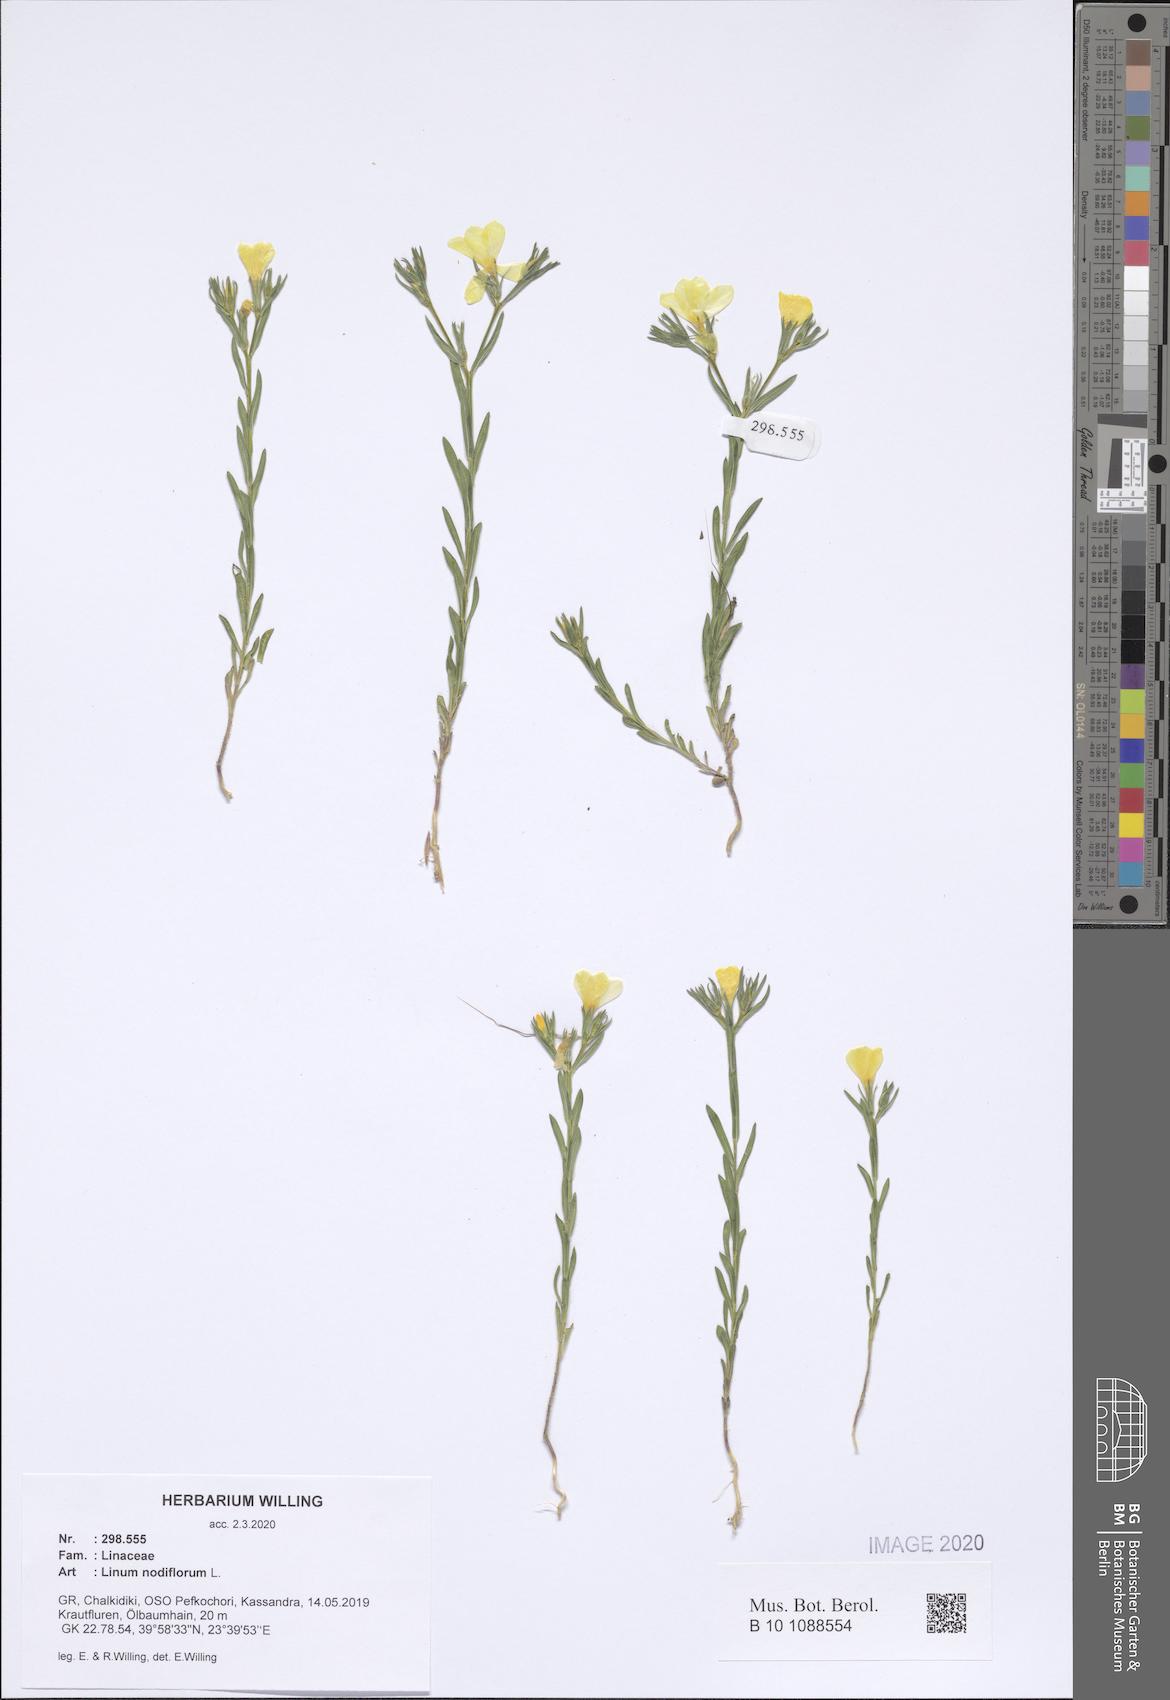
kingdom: Plantae
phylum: Tracheophyta
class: Magnoliopsida
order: Malpighiales
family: Linaceae
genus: Linum
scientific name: Linum nodiflorum
